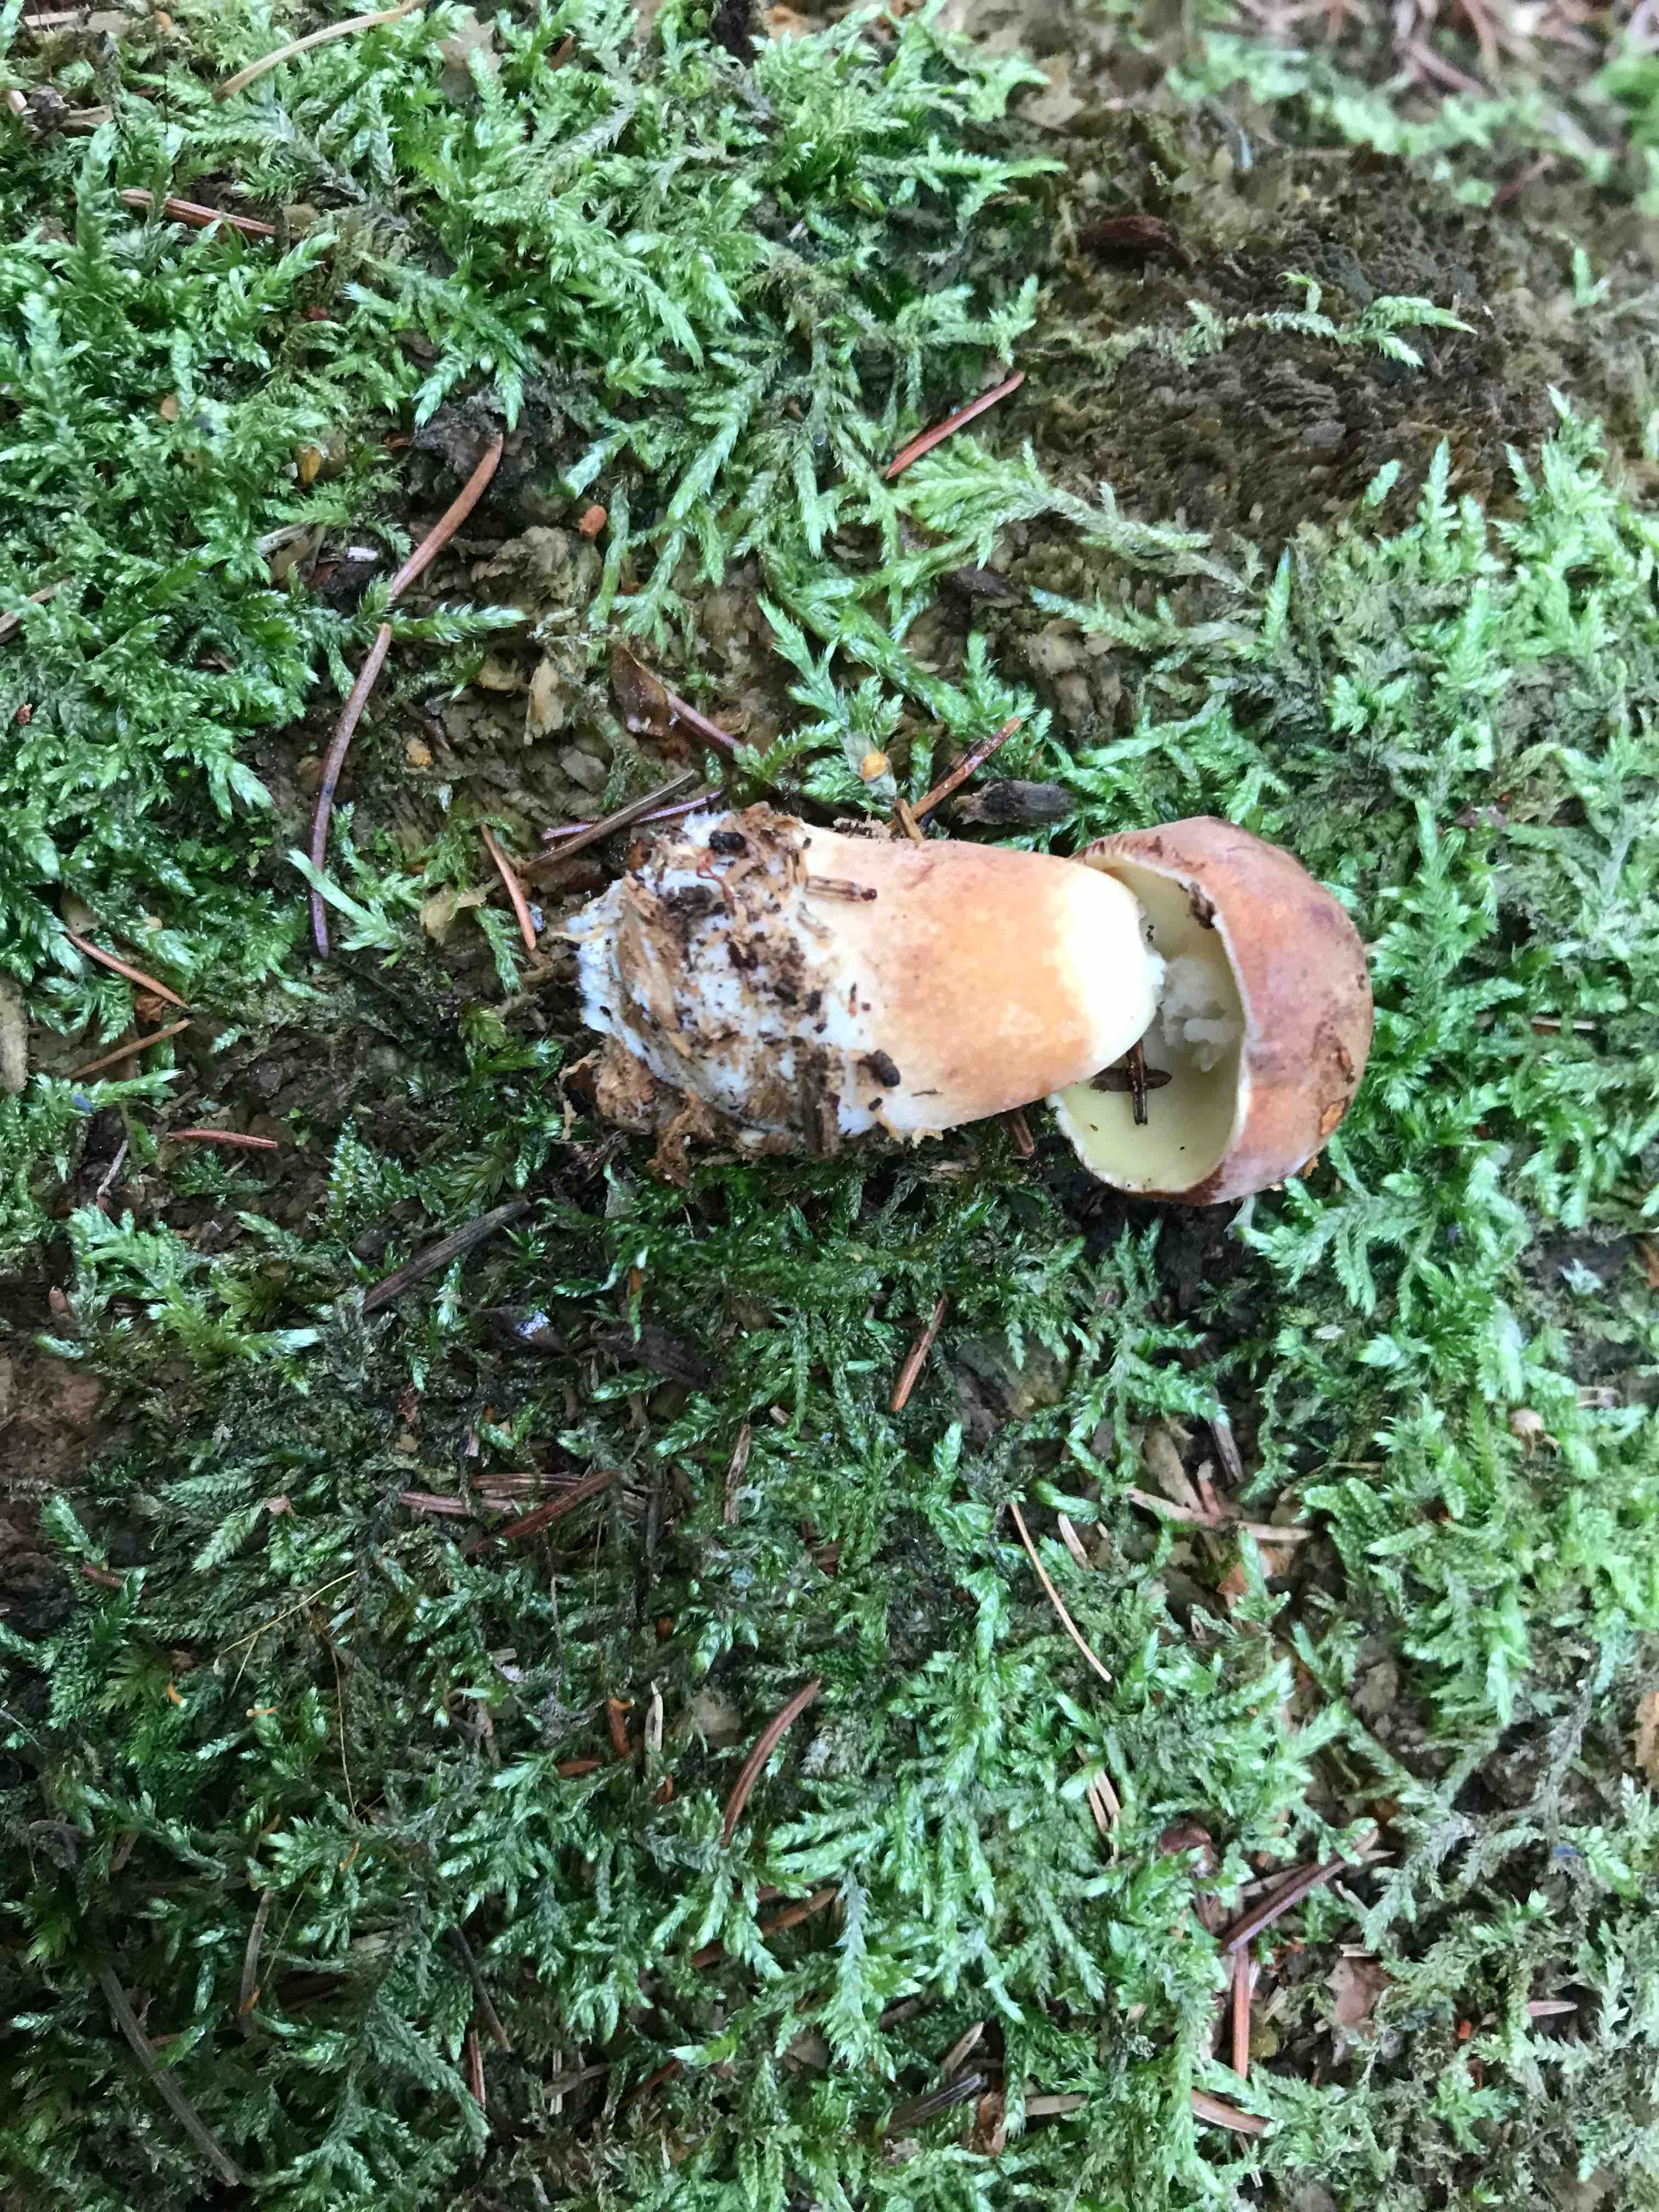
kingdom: Fungi
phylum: Basidiomycota
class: Agaricomycetes
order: Boletales
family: Boletaceae
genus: Imleria
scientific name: Imleria badia
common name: brunstokket rørhat
